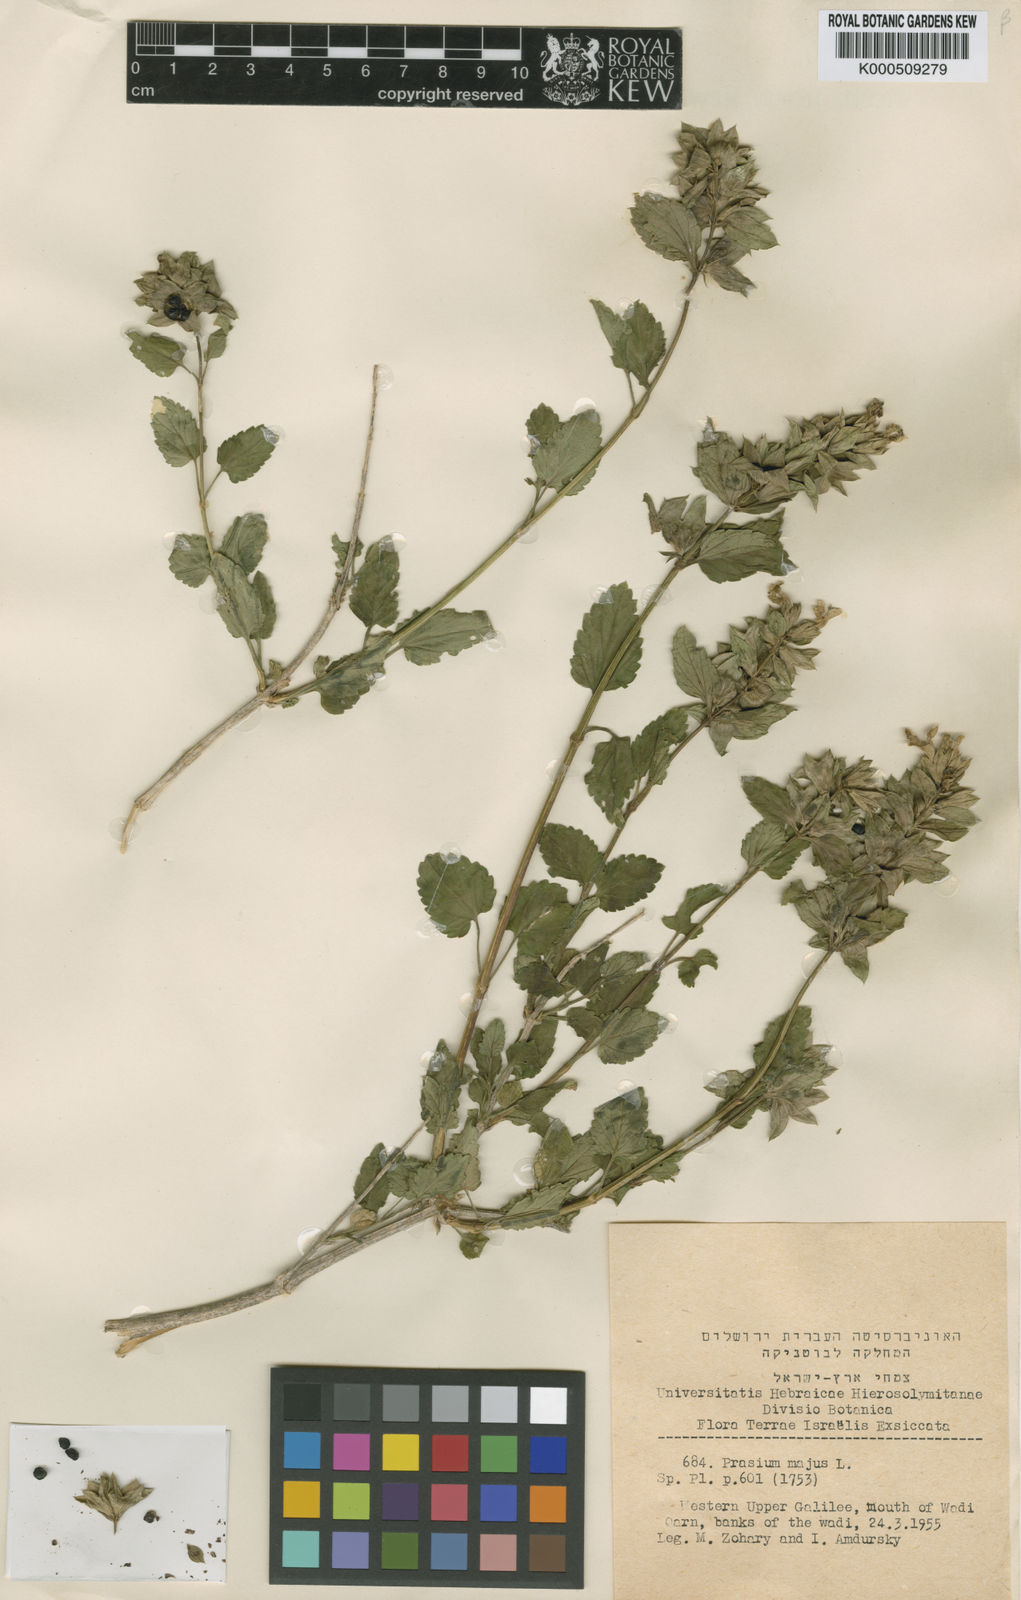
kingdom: Plantae
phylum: Tracheophyta
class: Magnoliopsida
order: Lamiales
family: Lamiaceae
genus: Prasium
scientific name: Prasium majus
